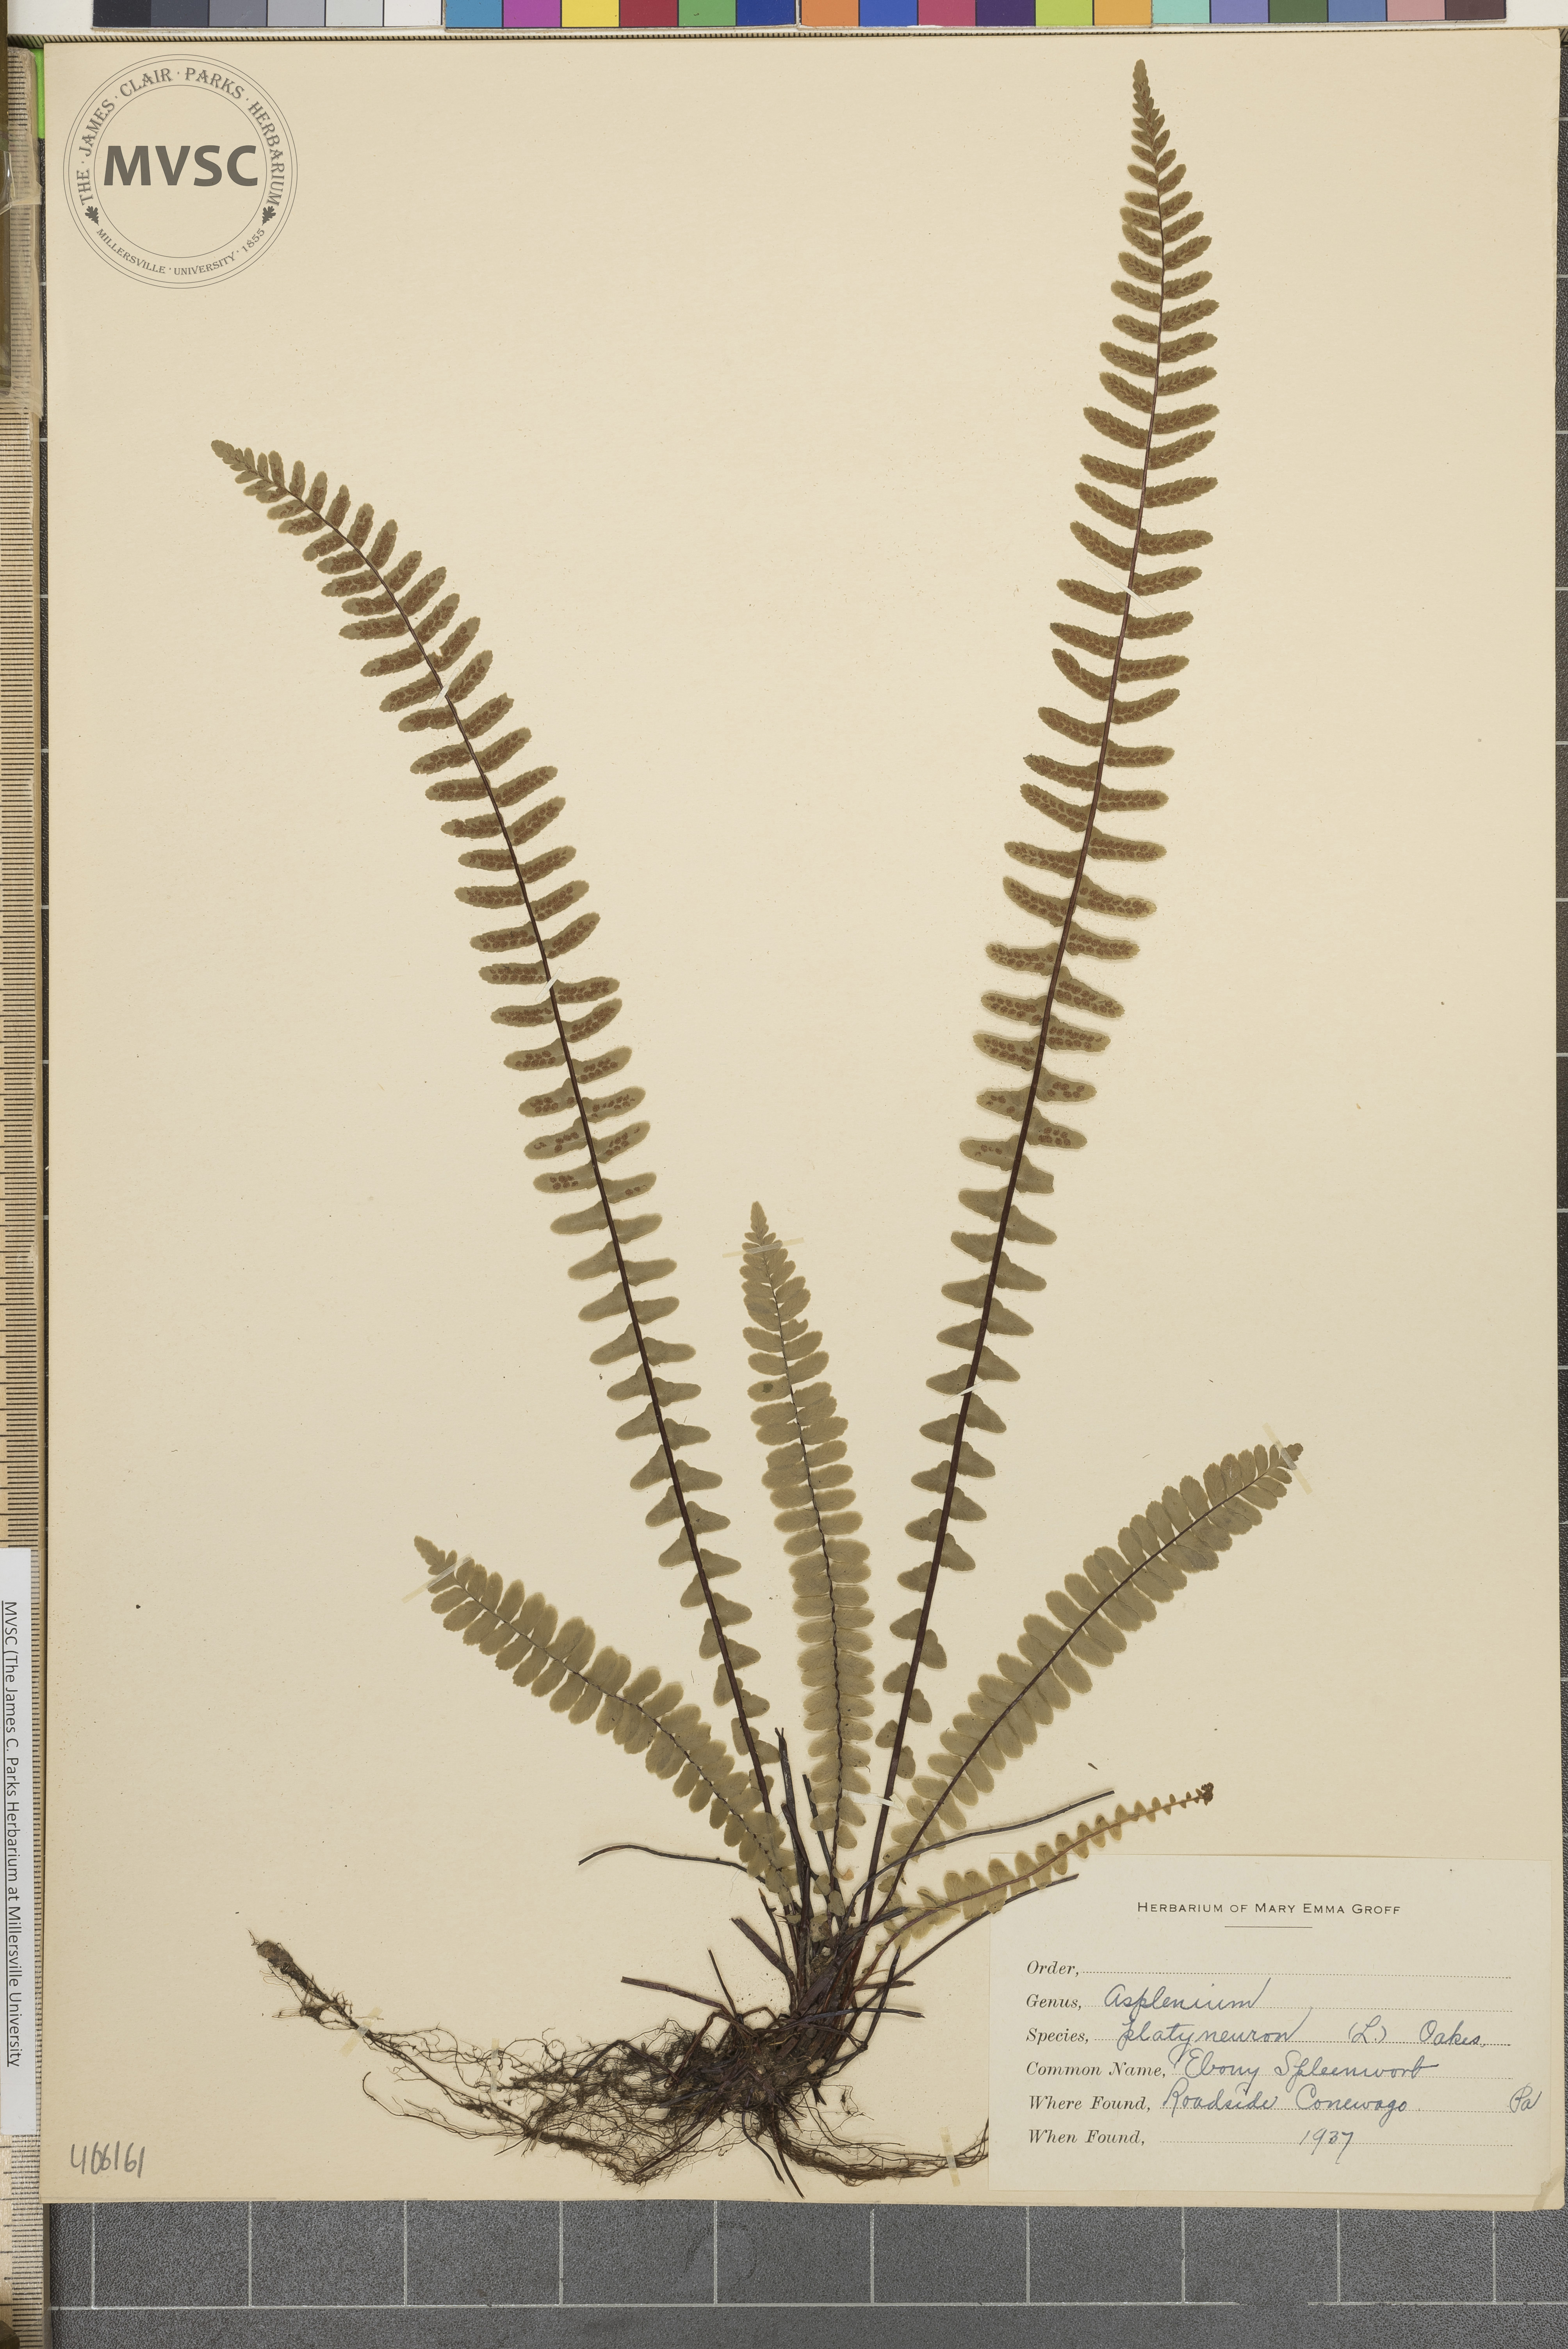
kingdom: Plantae
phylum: Tracheophyta
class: Polypodiopsida
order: Polypodiales
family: Aspleniaceae
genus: Asplenium
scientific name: Asplenium platyneuron
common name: Ebony spleenwort
